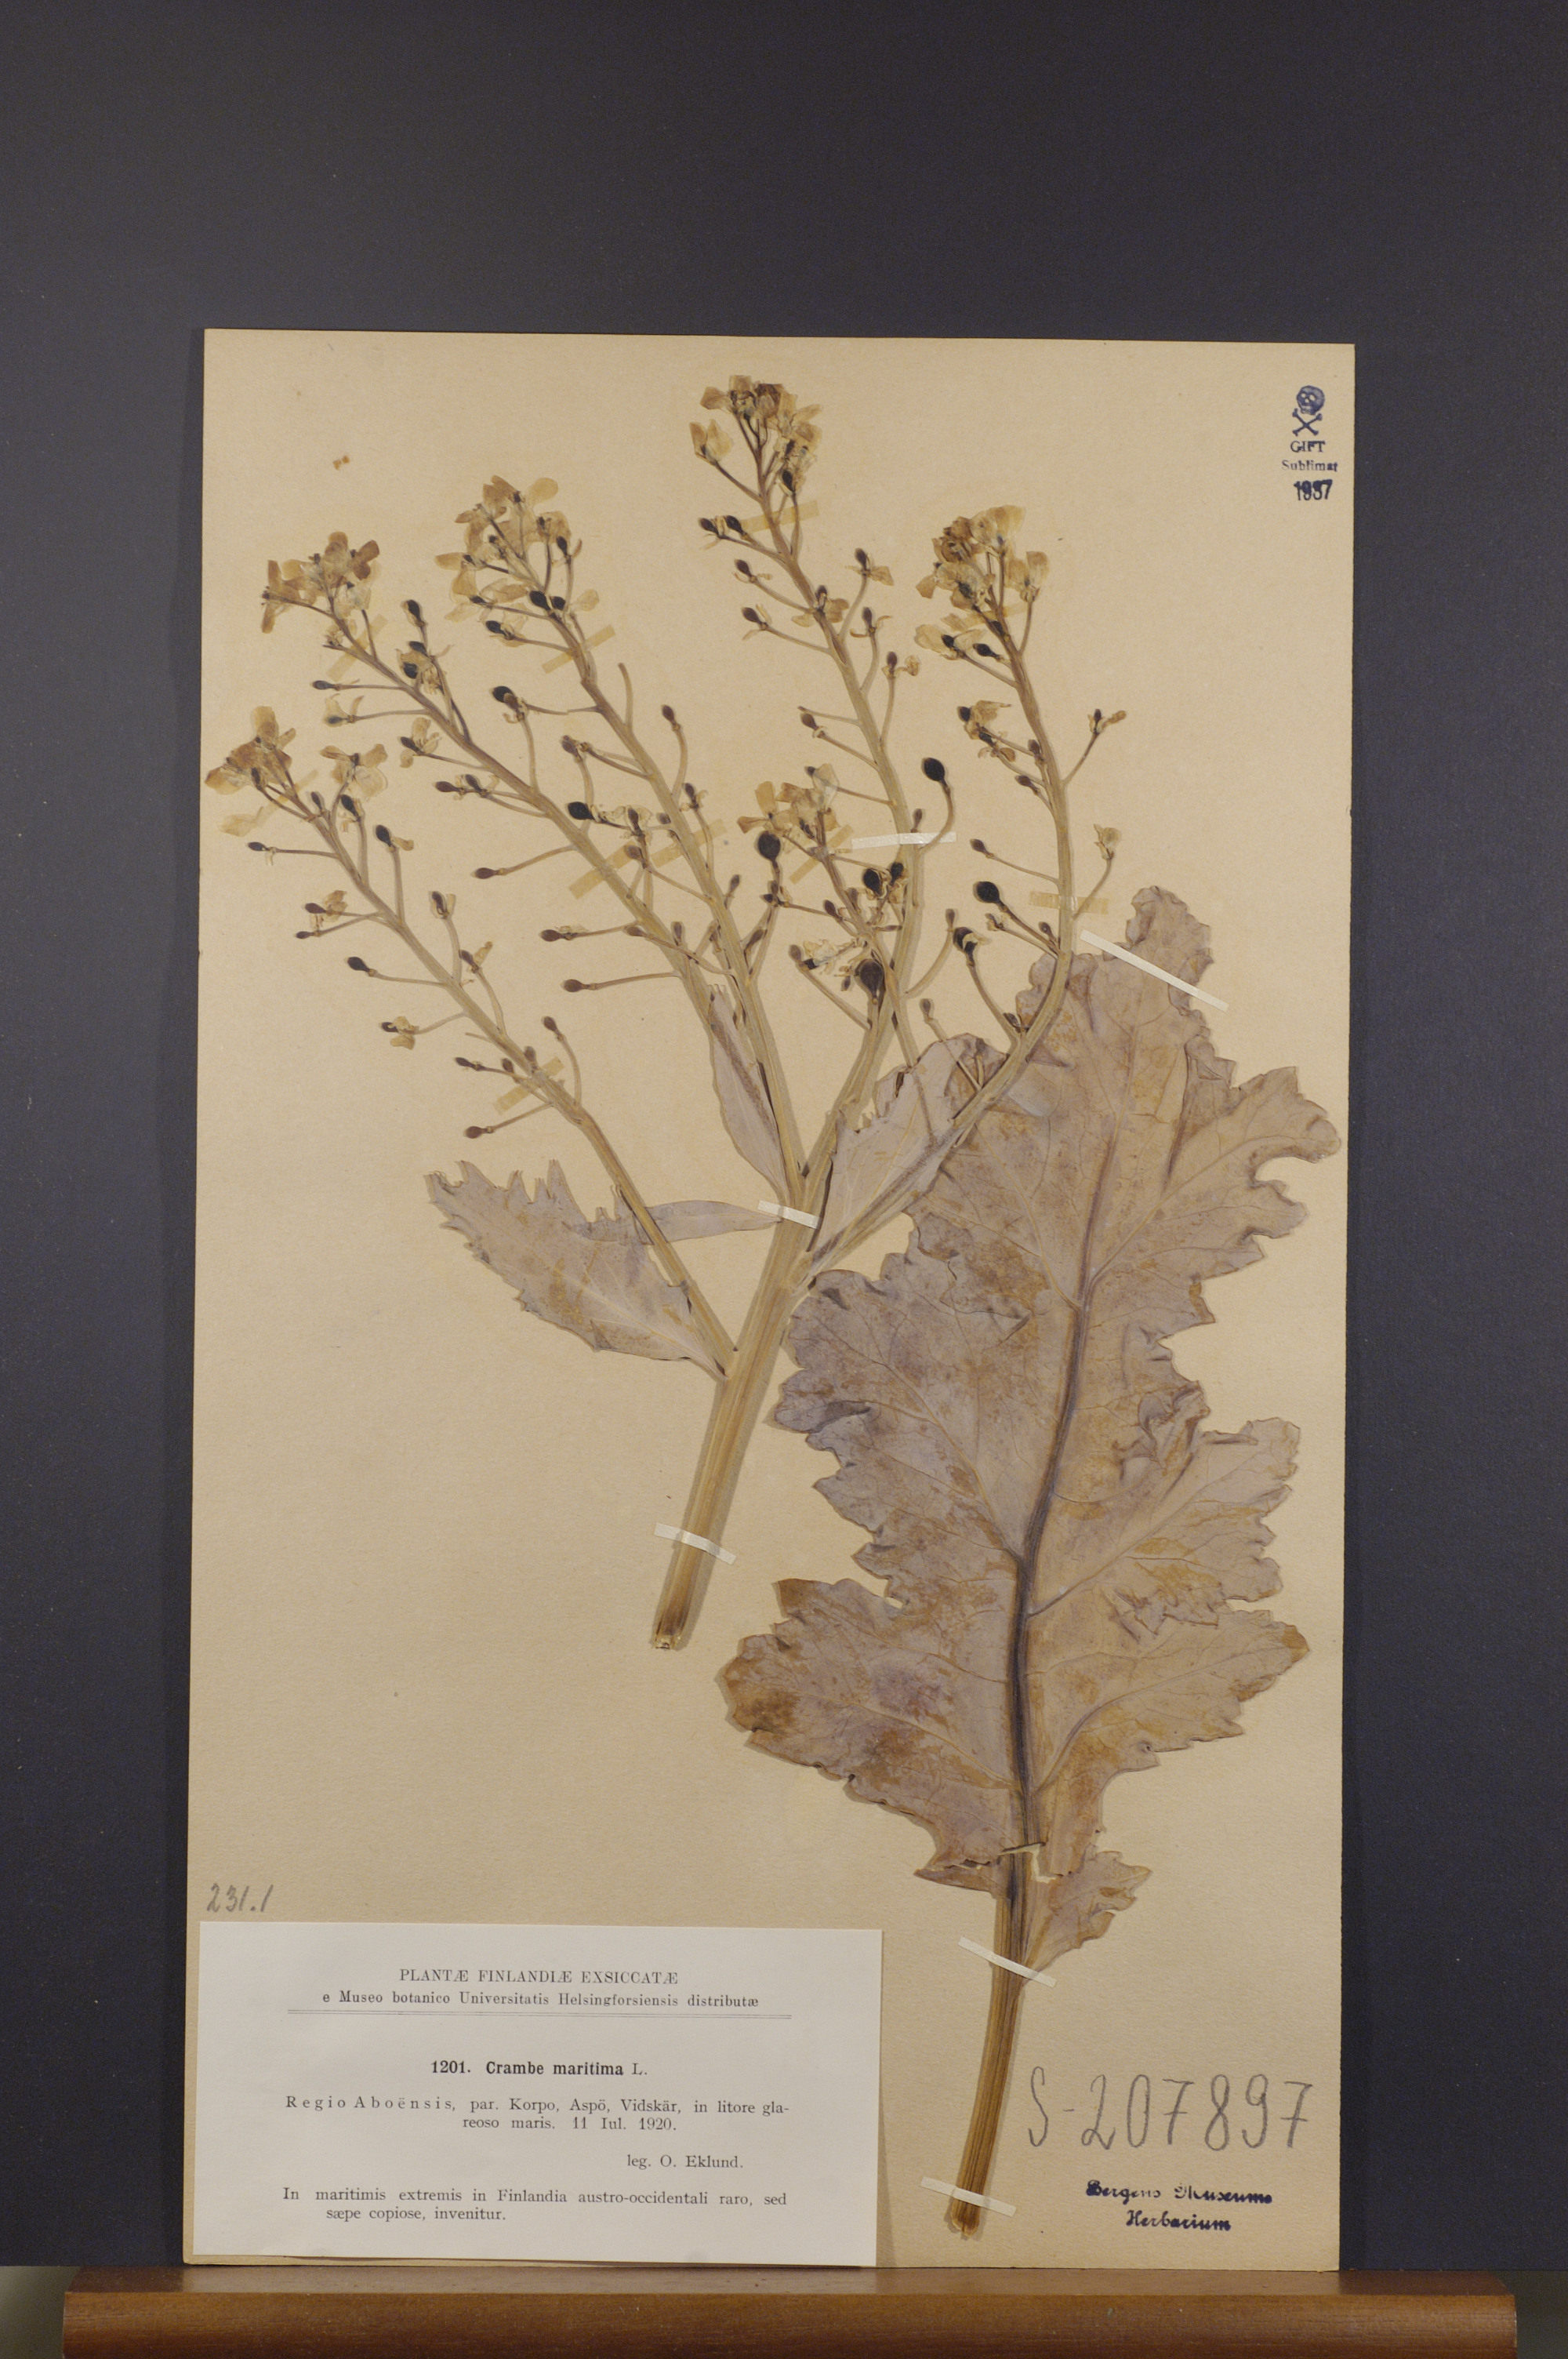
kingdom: Plantae
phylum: Tracheophyta
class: Magnoliopsida
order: Brassicales
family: Brassicaceae
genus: Crambe
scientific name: Crambe maritima
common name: Sea-kale
